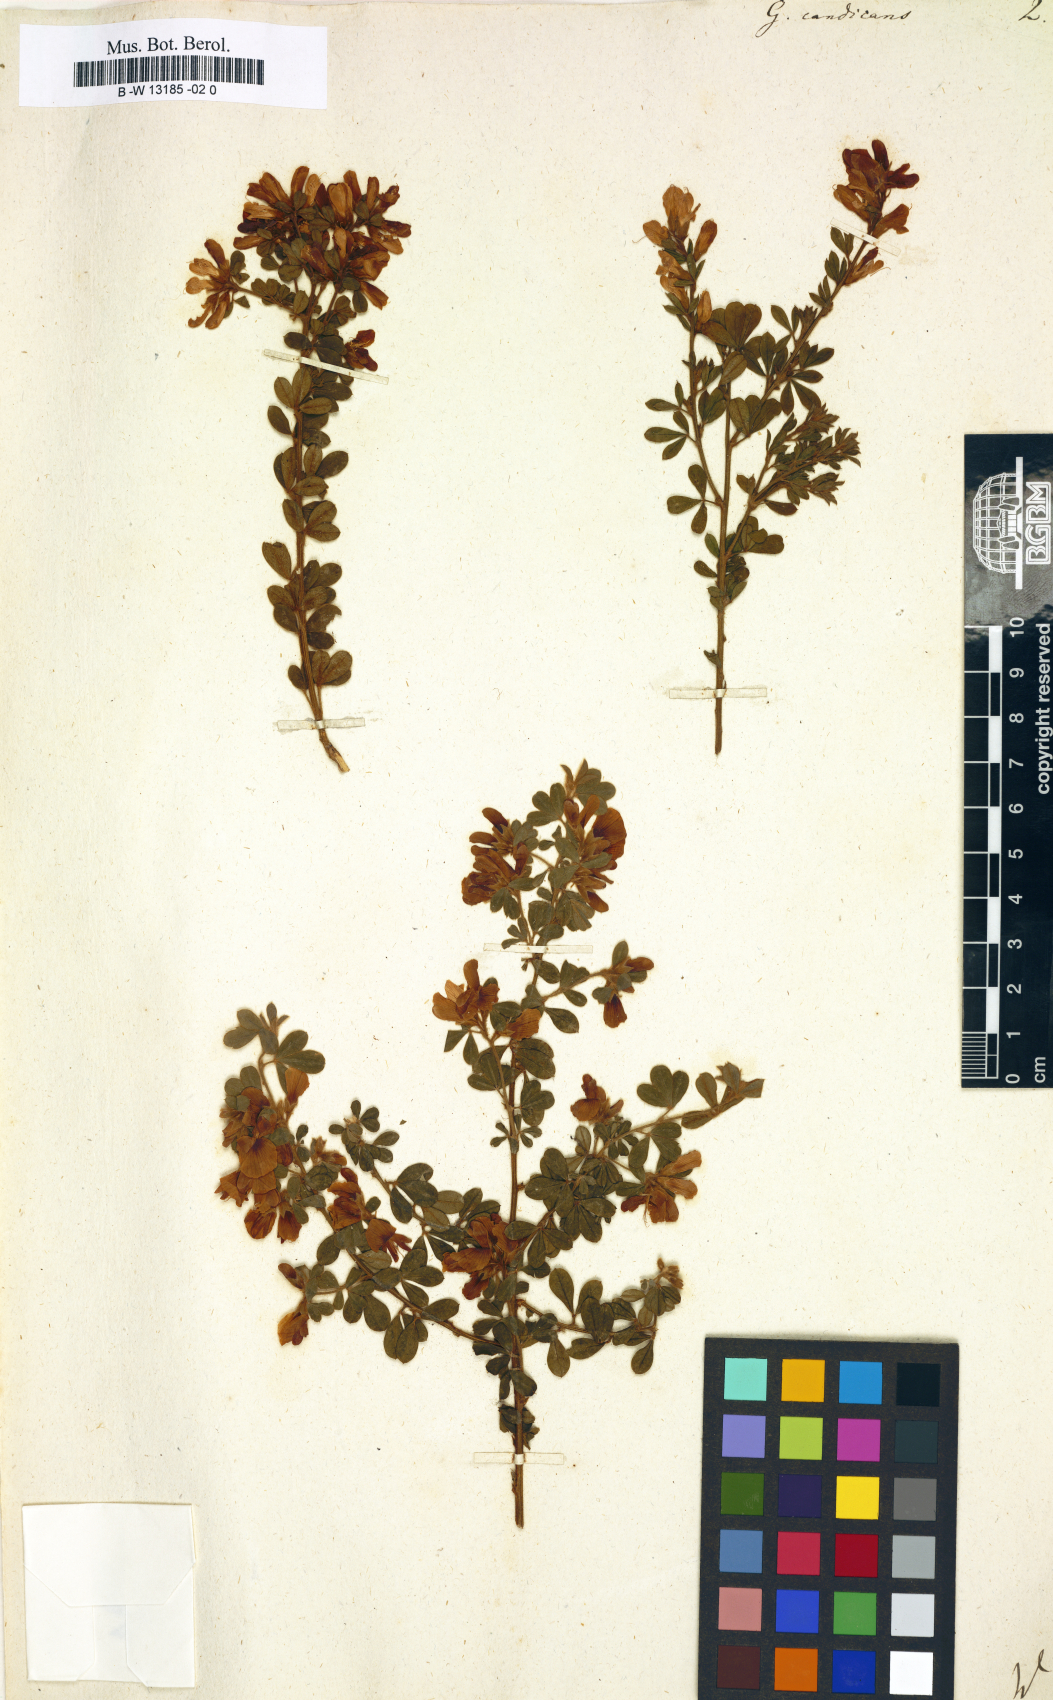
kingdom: Plantae
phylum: Tracheophyta
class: Magnoliopsida
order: Fabales
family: Fabaceae
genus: Genista
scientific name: Genista monspessulana
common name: Montpellier broom
